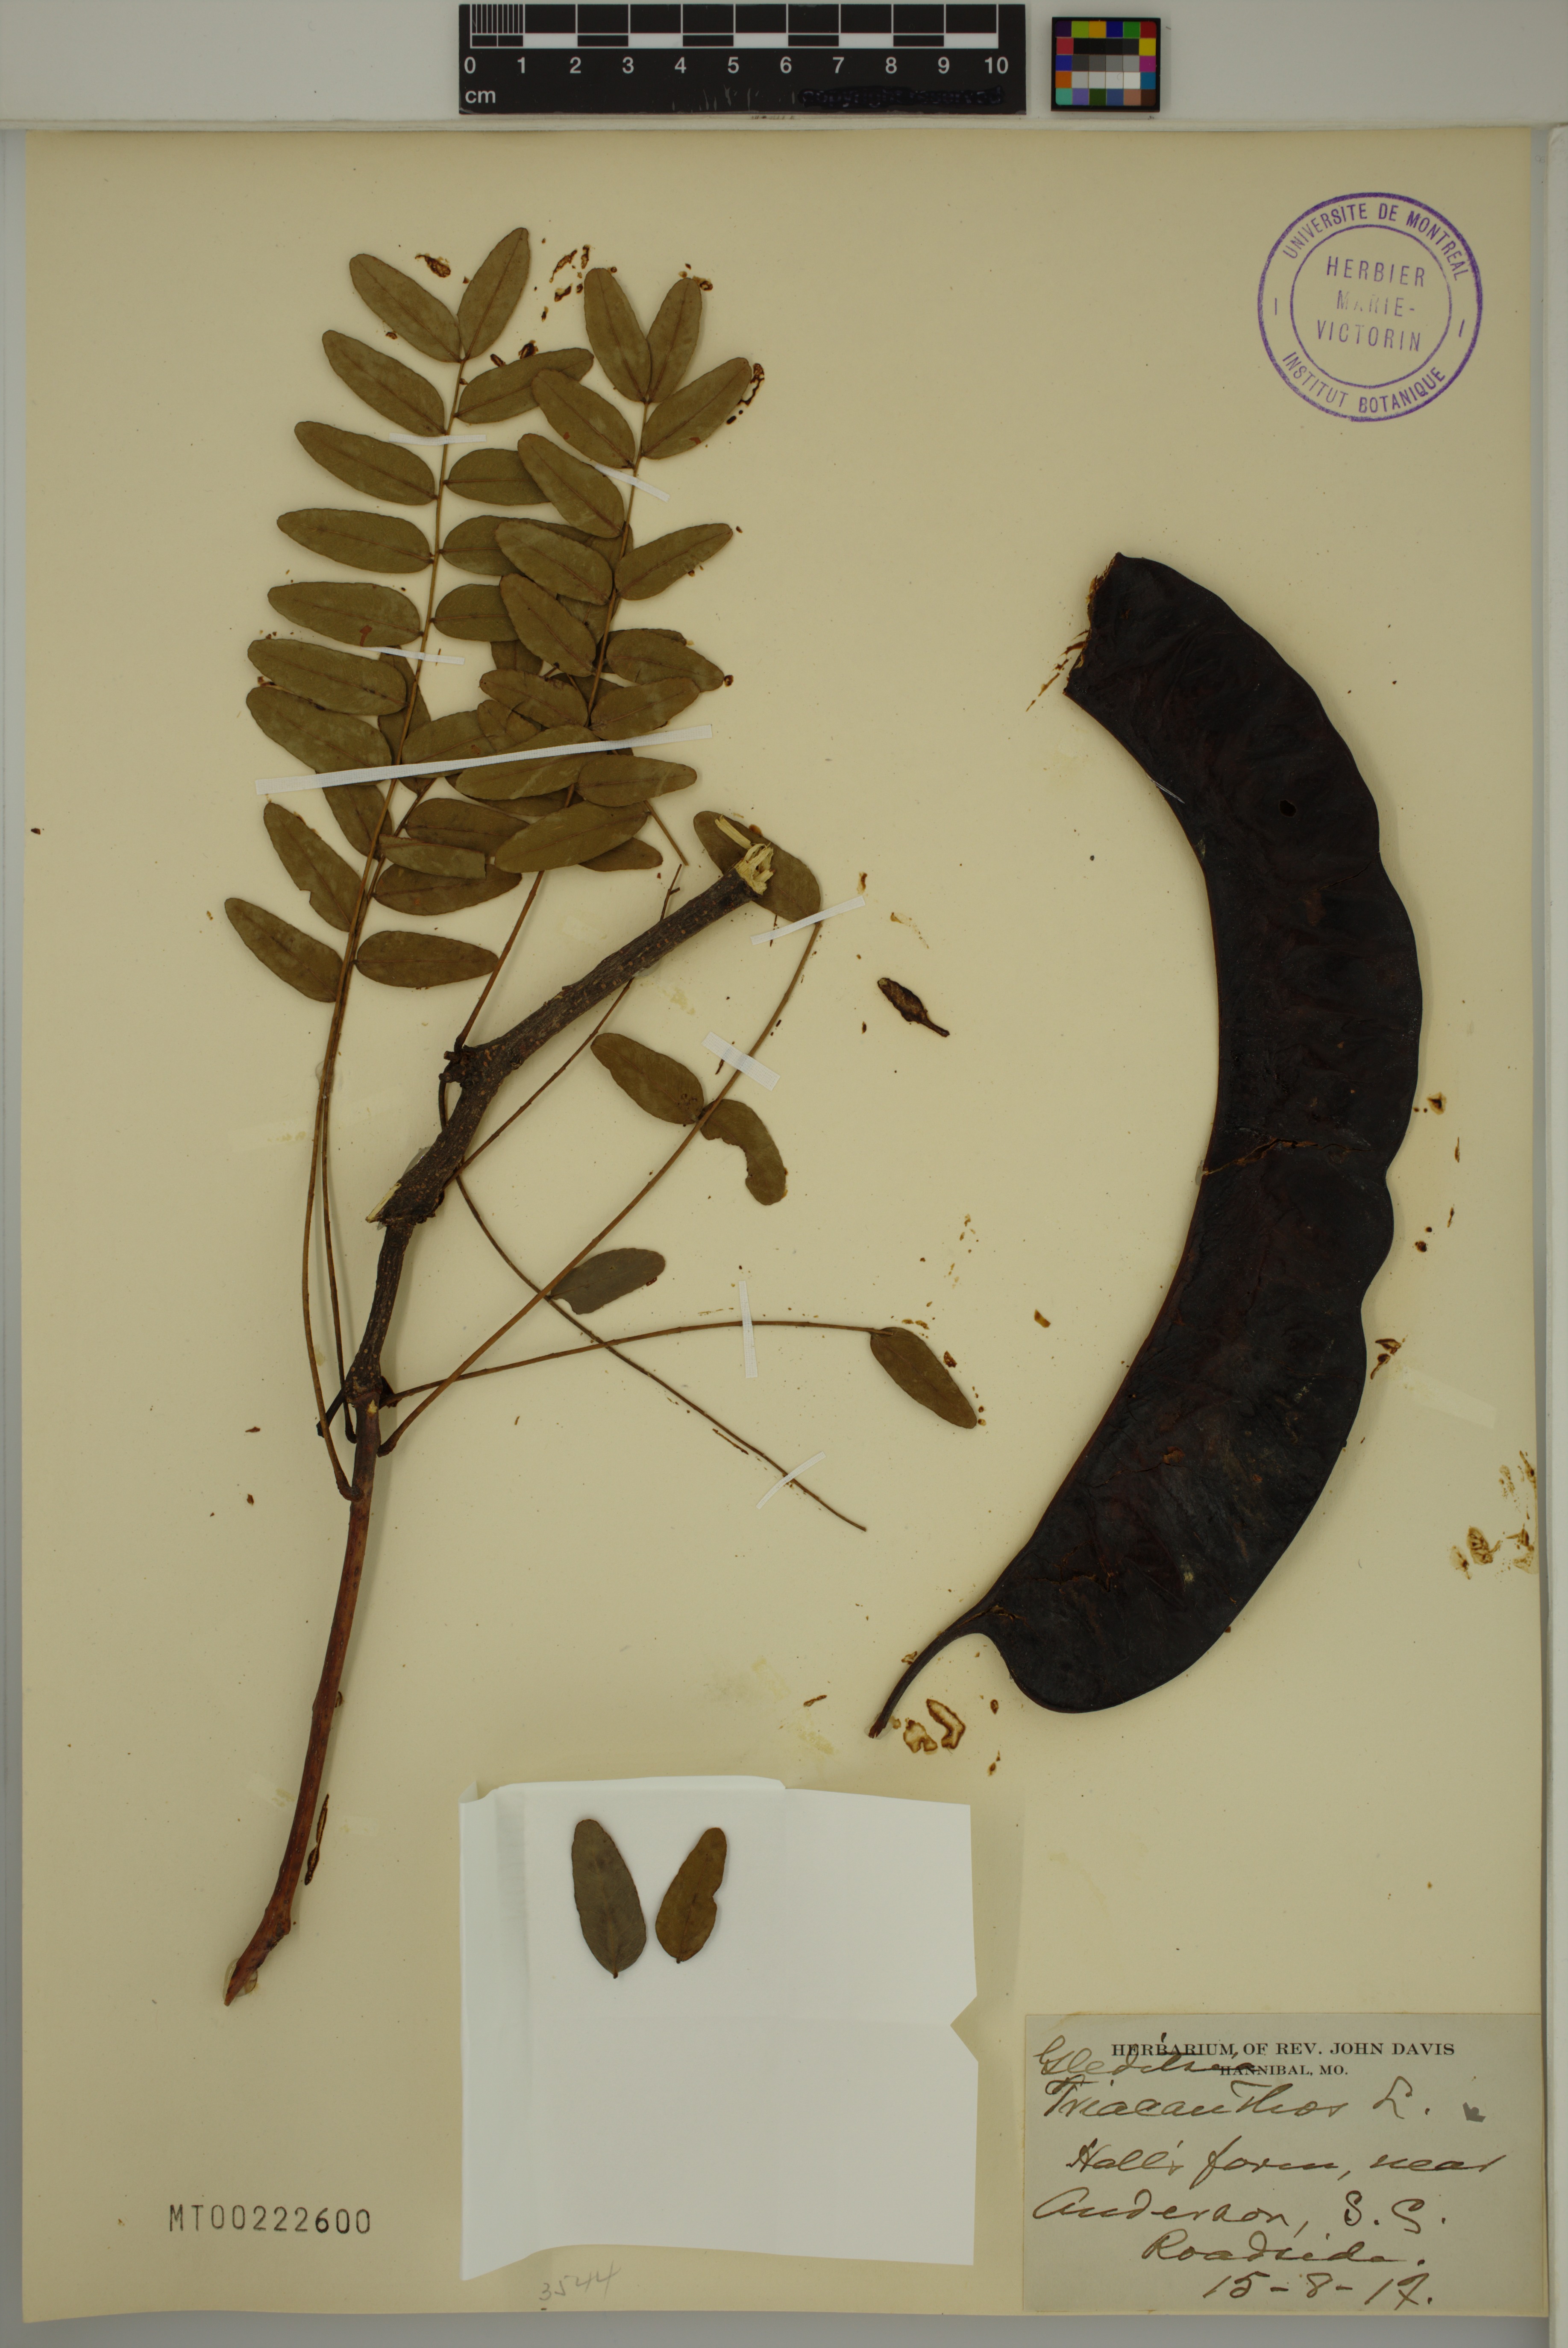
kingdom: Plantae
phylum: Tracheophyta
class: Magnoliopsida
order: Fabales
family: Fabaceae
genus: Gleditsia
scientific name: Gleditsia triacanthos
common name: Common honeylocust
